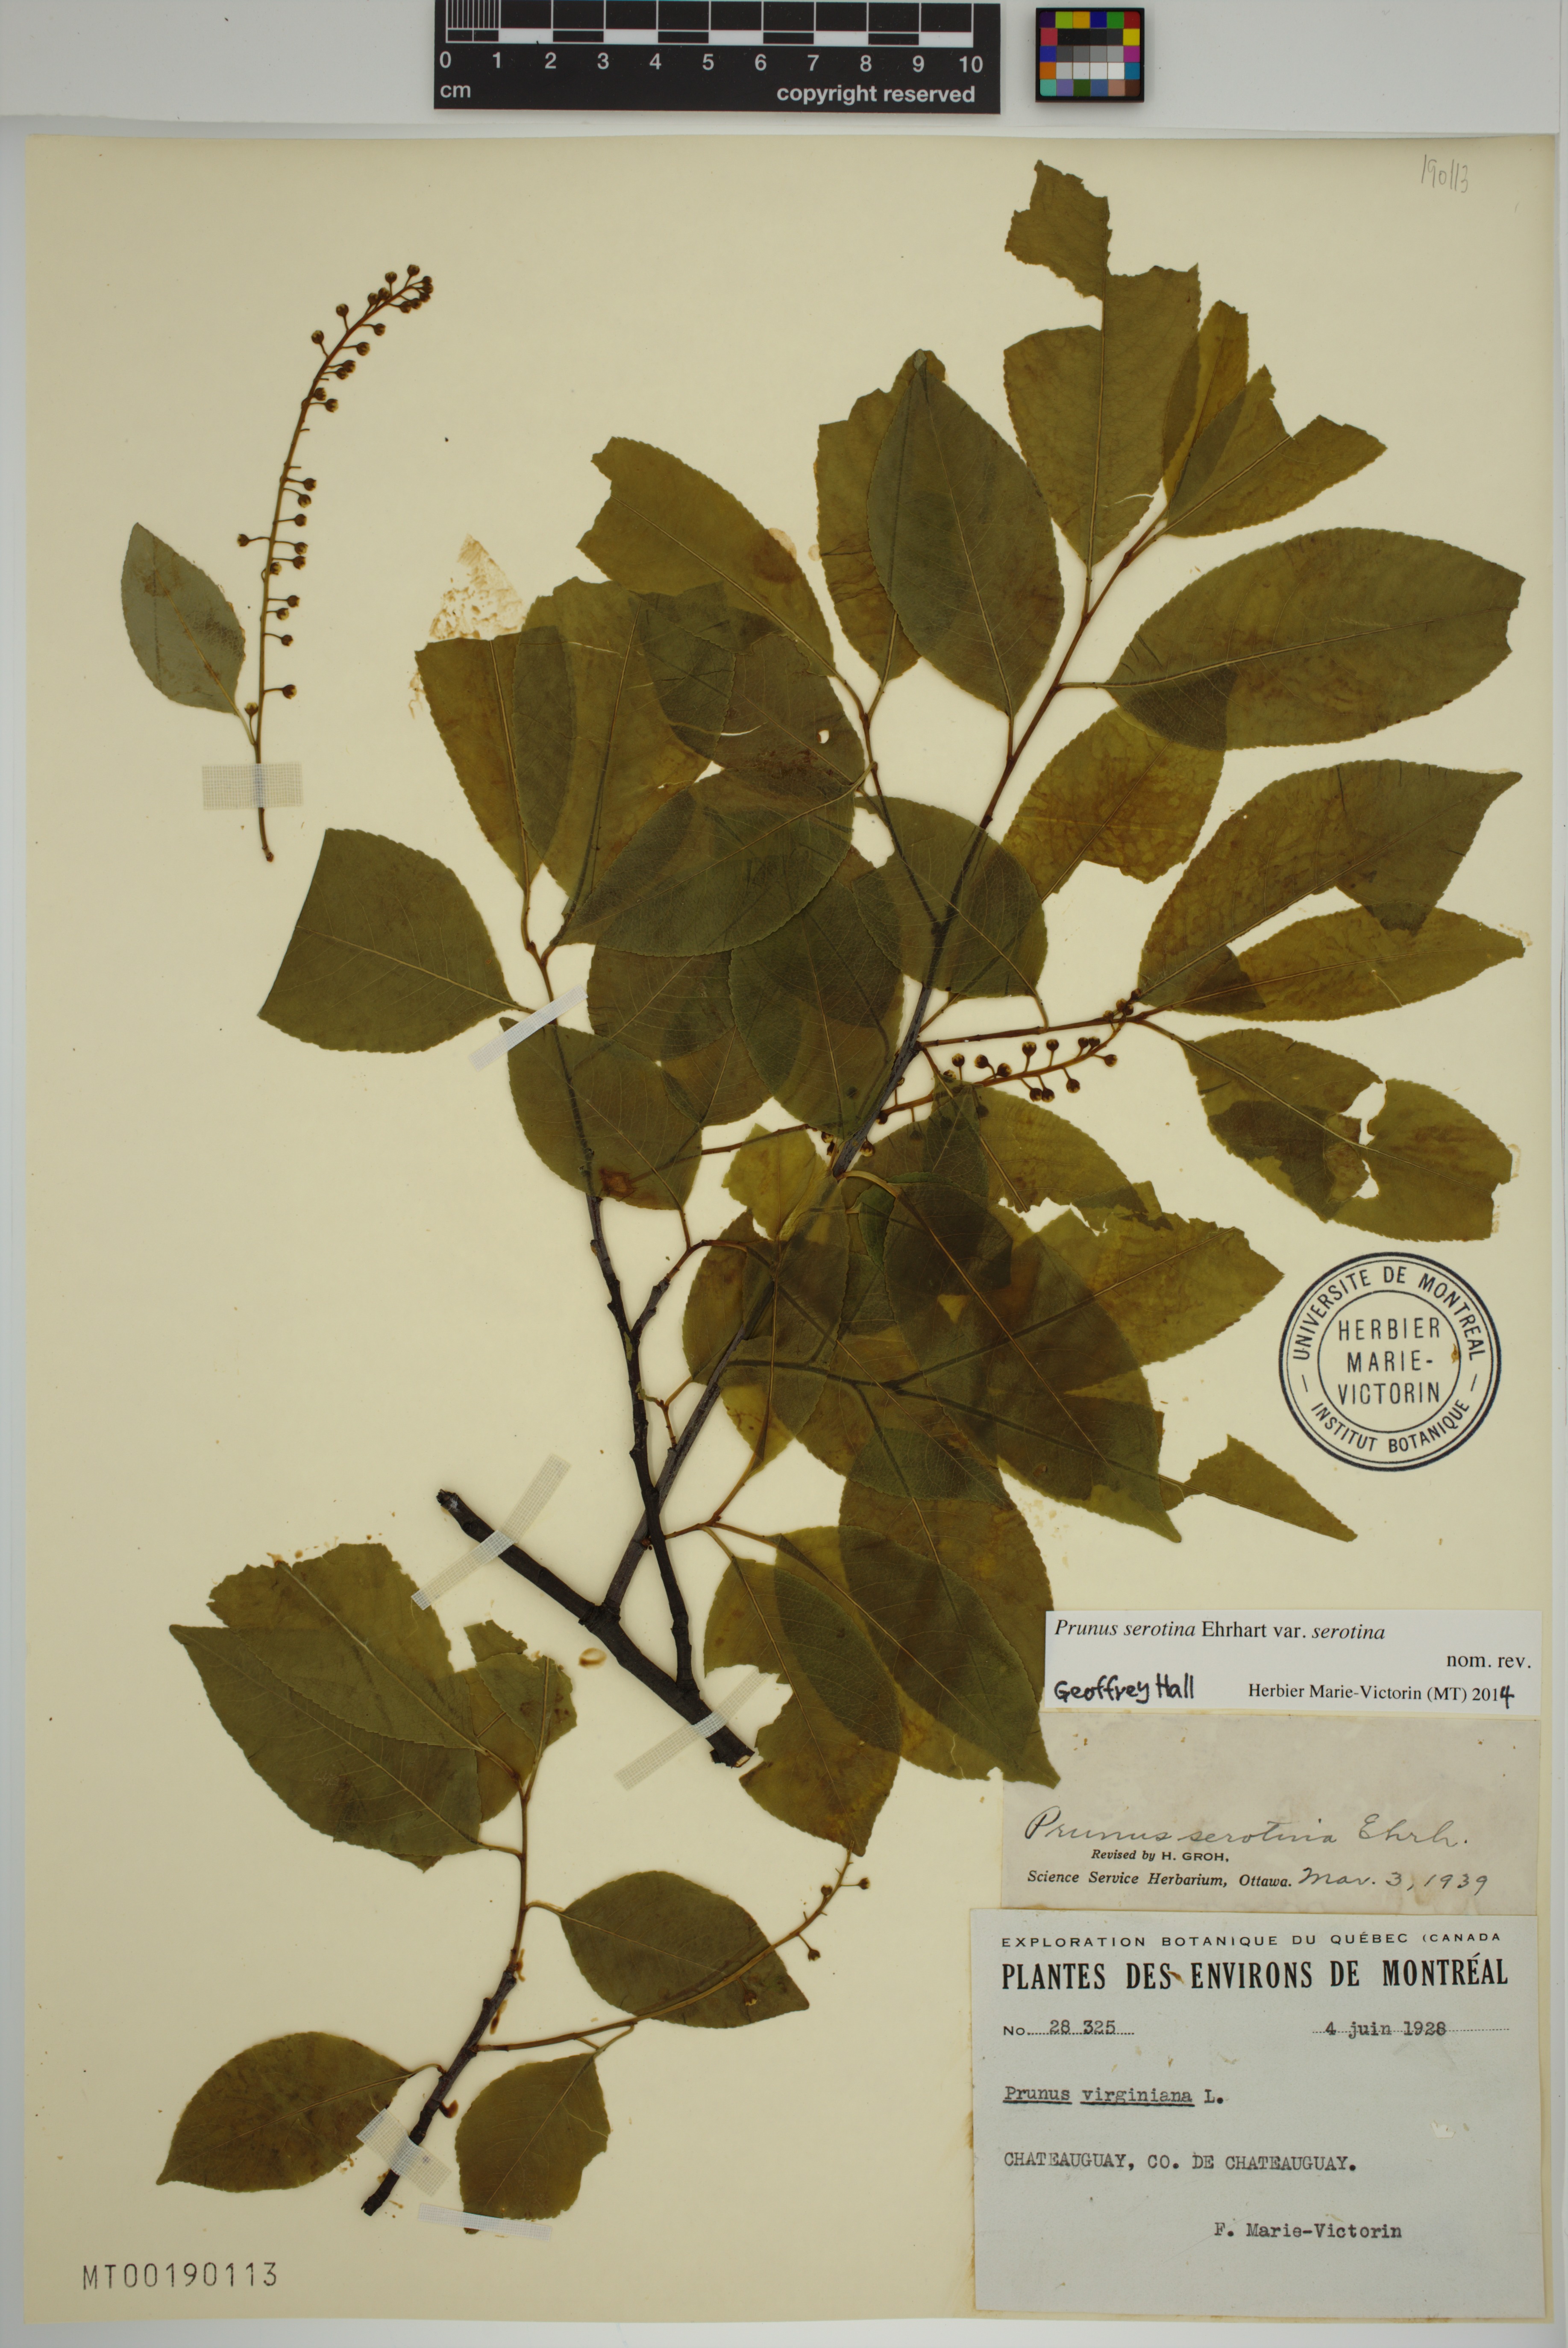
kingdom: Plantae
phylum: Tracheophyta
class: Magnoliopsida
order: Rosales
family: Rosaceae
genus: Prunus
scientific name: Prunus serotina
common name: Black cherry
